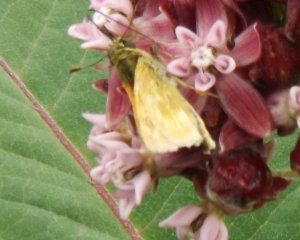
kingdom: Animalia
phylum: Arthropoda
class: Insecta
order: Lepidoptera
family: Hesperiidae
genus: Polites
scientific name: Polites
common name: Long Dash Skipper
